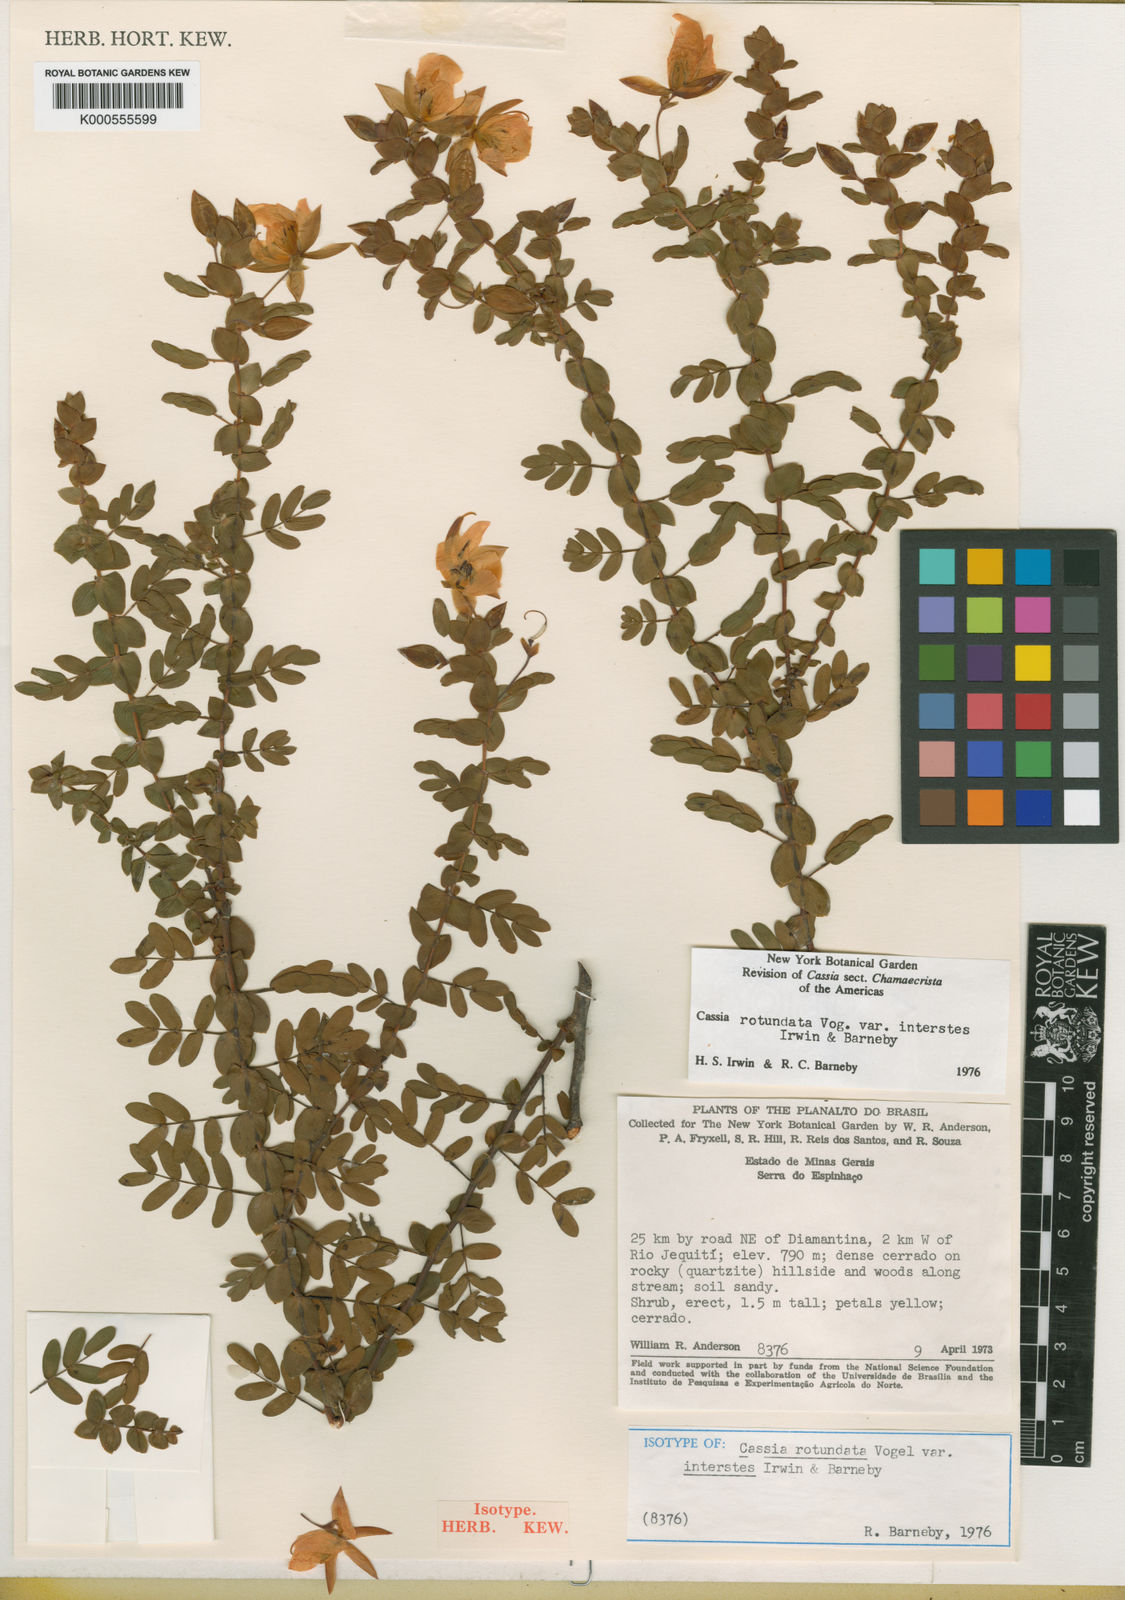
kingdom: Plantae
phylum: Tracheophyta
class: Magnoliopsida
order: Fabales
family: Fabaceae
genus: Chamaecrista
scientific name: Chamaecrista rotundata
